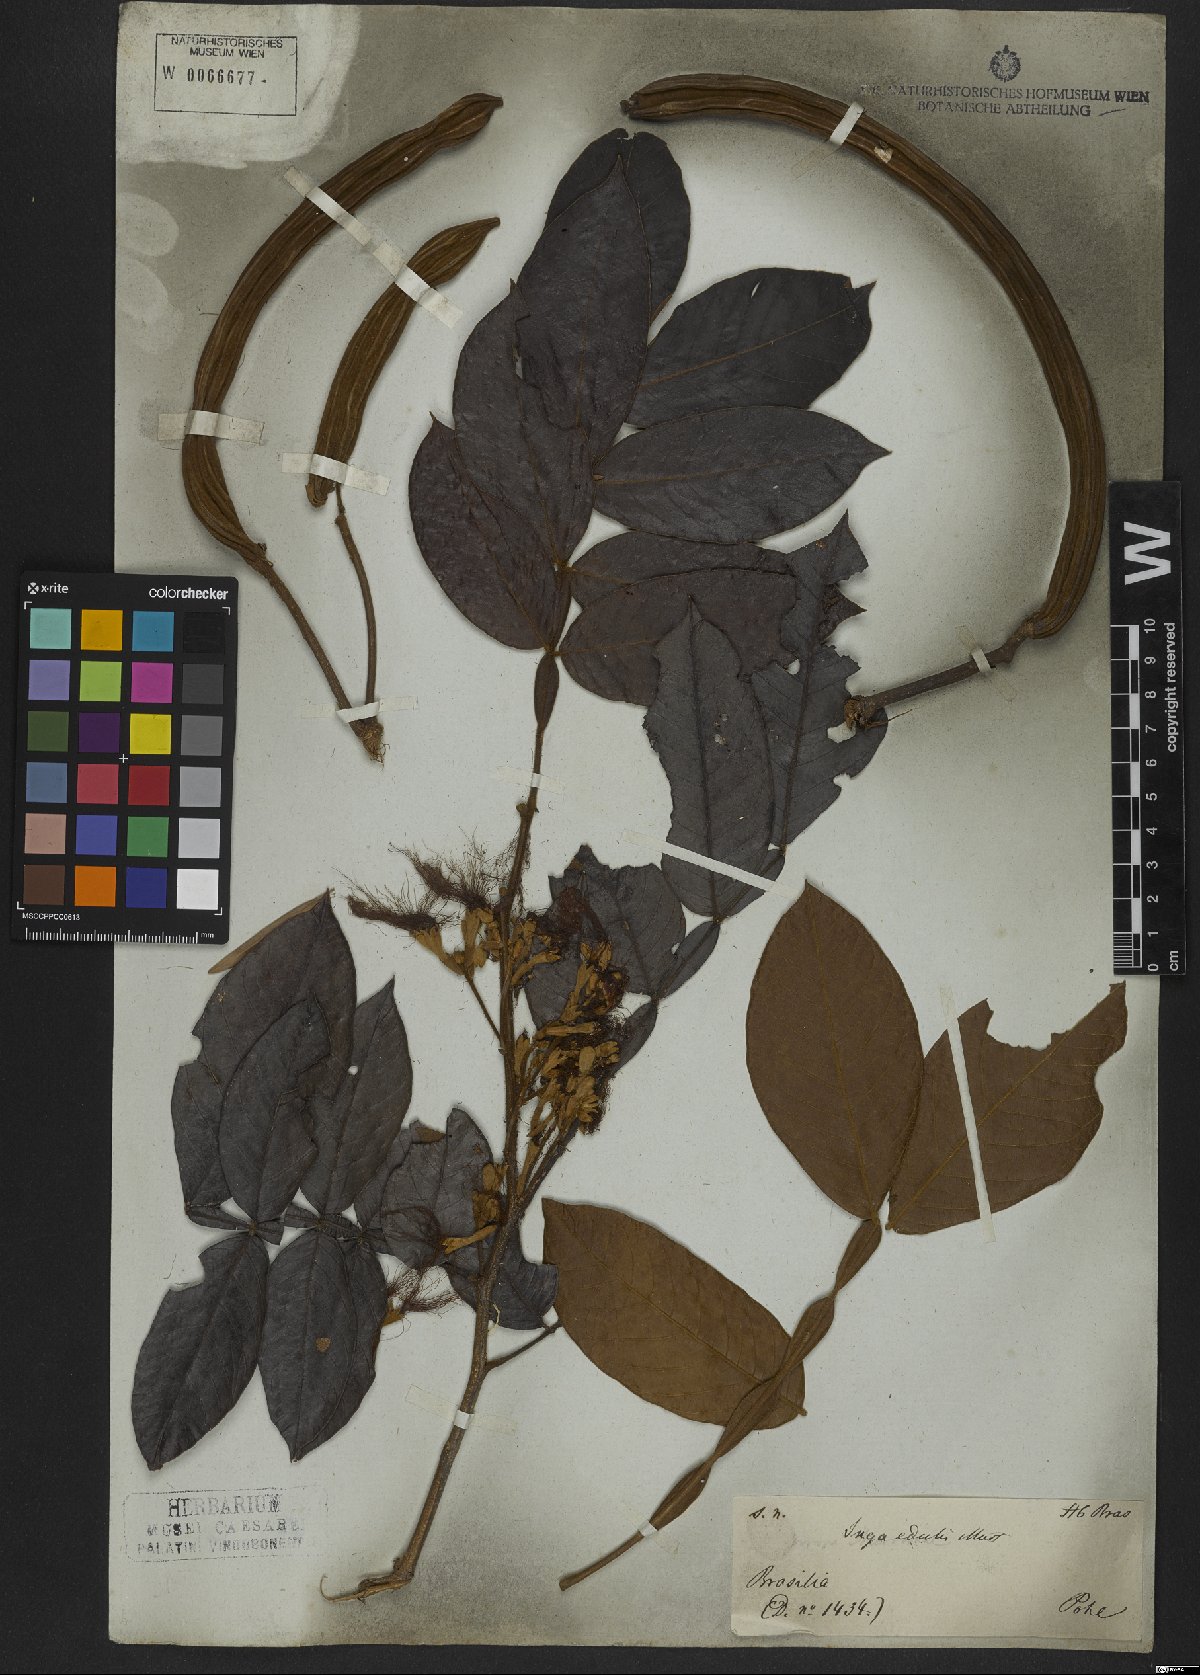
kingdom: Plantae
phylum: Tracheophyta
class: Magnoliopsida
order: Fabales
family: Fabaceae
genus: Inga
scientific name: Inga edulis
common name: Ice cream bean
